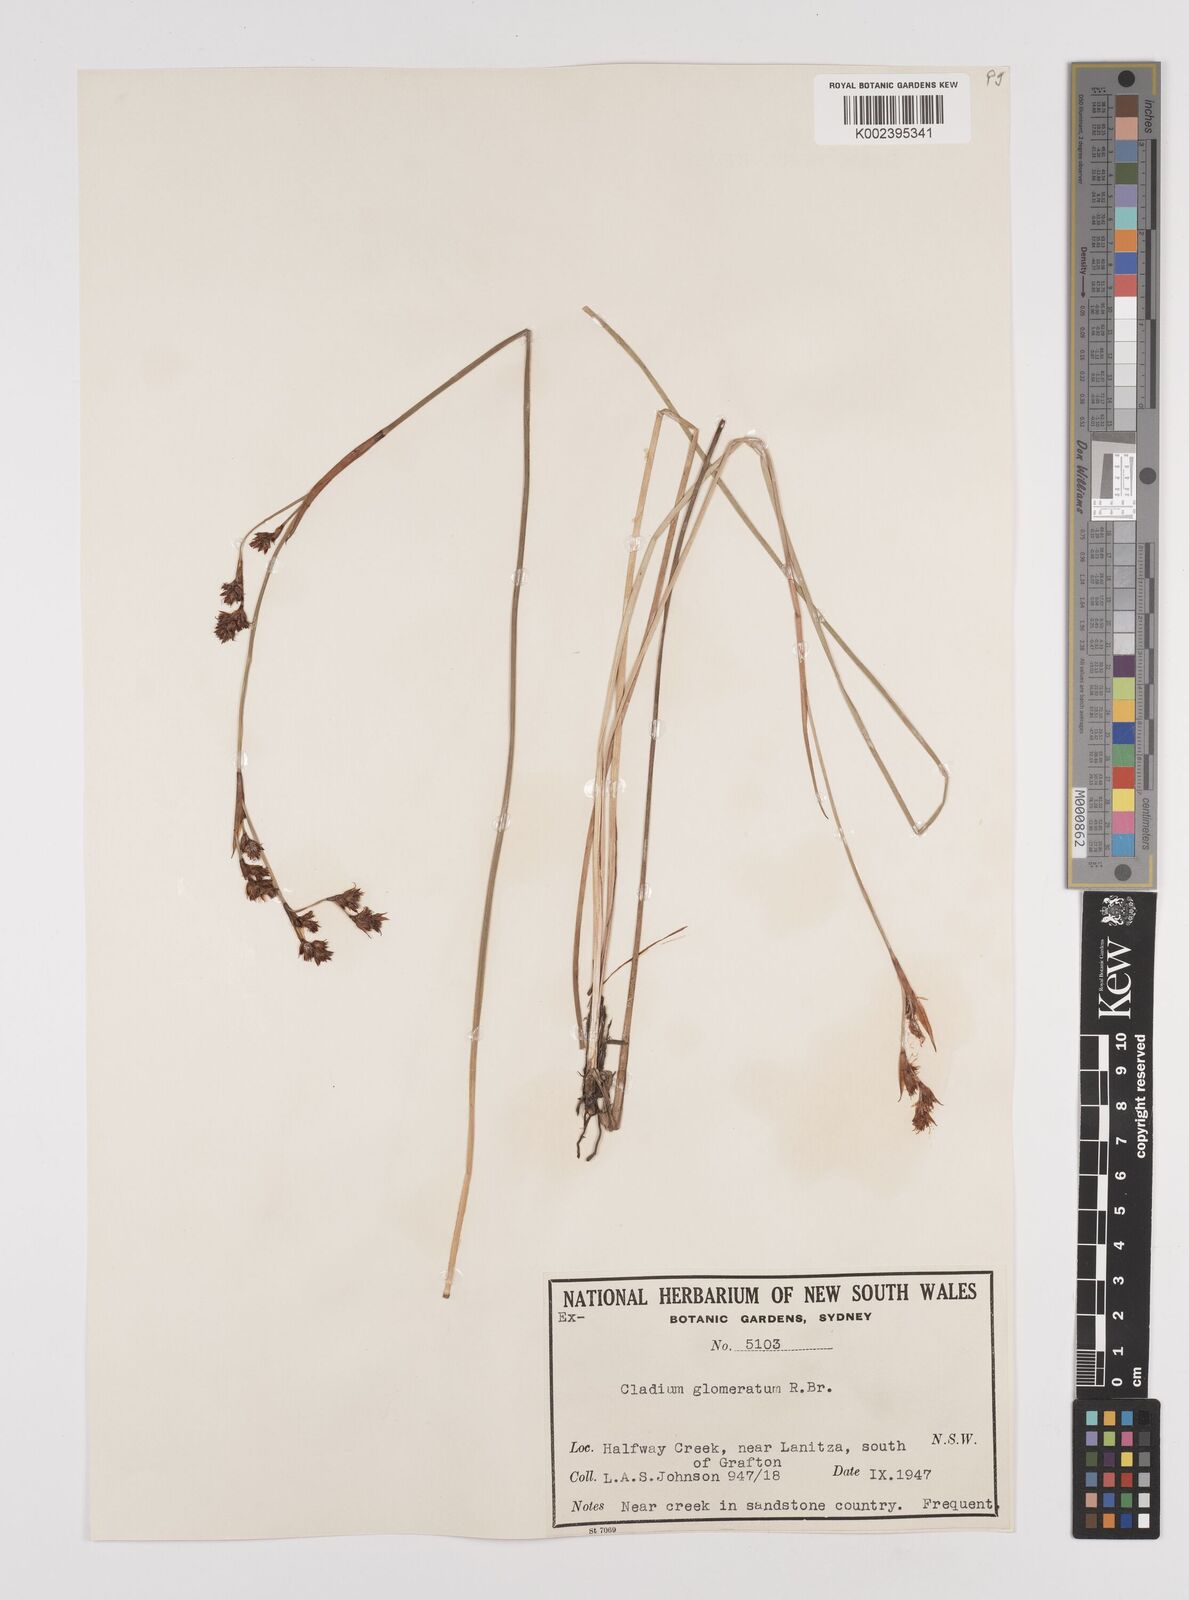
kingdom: Plantae
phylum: Tracheophyta
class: Liliopsida
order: Poales
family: Cyperaceae
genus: Machaerina
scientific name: Machaerina rubiginosa
